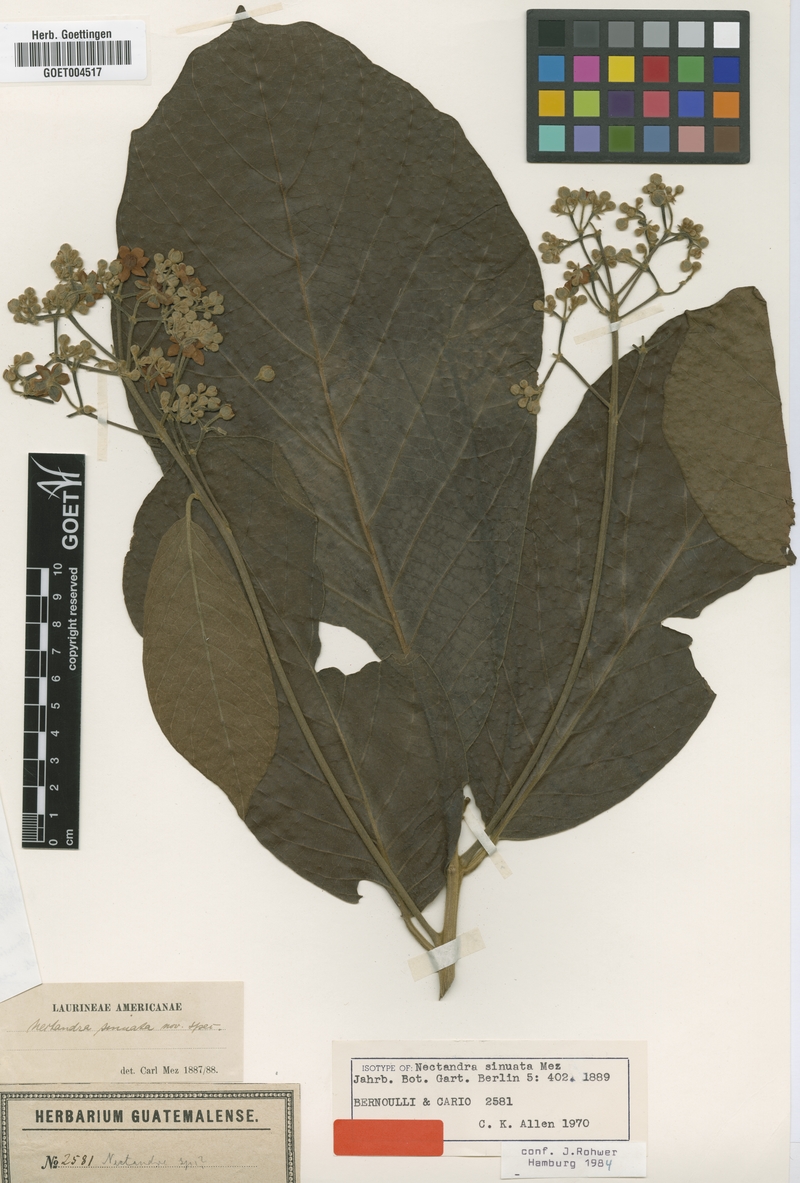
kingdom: Plantae
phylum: Tracheophyta
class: Magnoliopsida
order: Laurales
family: Lauraceae
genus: Ocotea
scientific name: Ocotea sinuata
